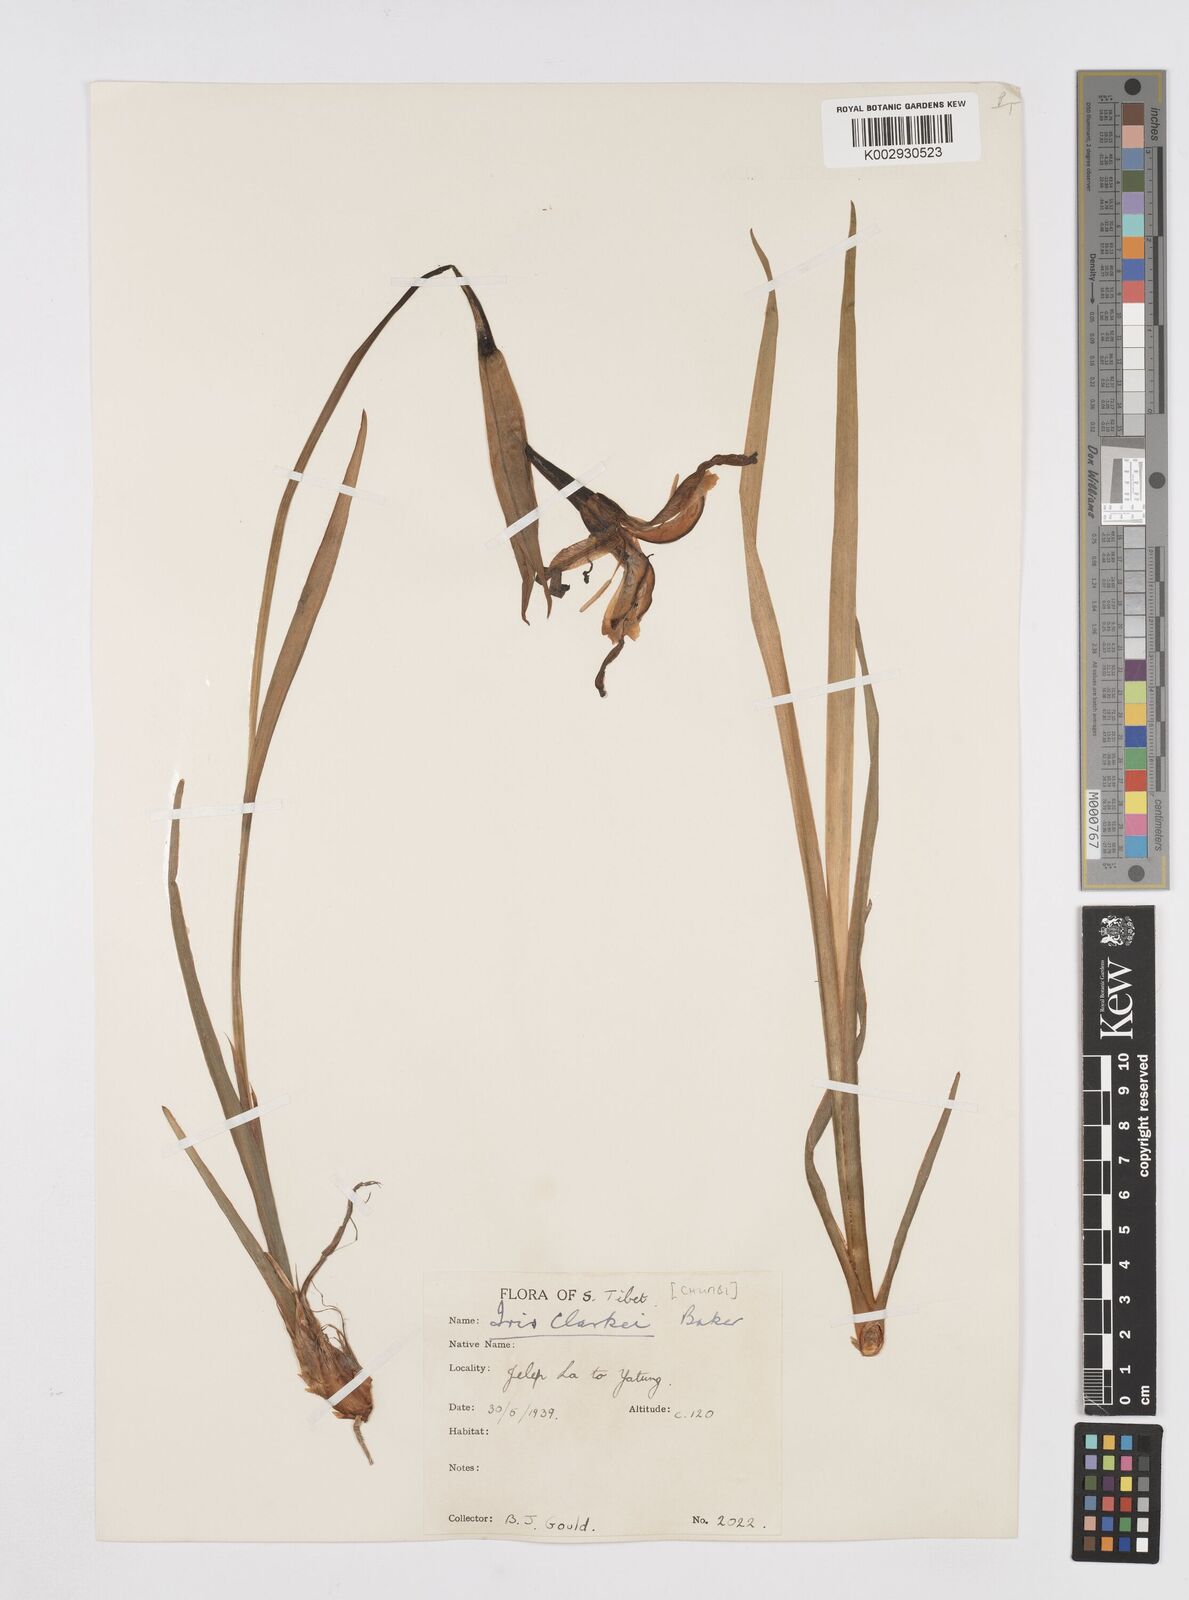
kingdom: Plantae
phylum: Tracheophyta
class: Liliopsida
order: Asparagales
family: Iridaceae
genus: Iris
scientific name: Iris clarkei
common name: Tibet iris
